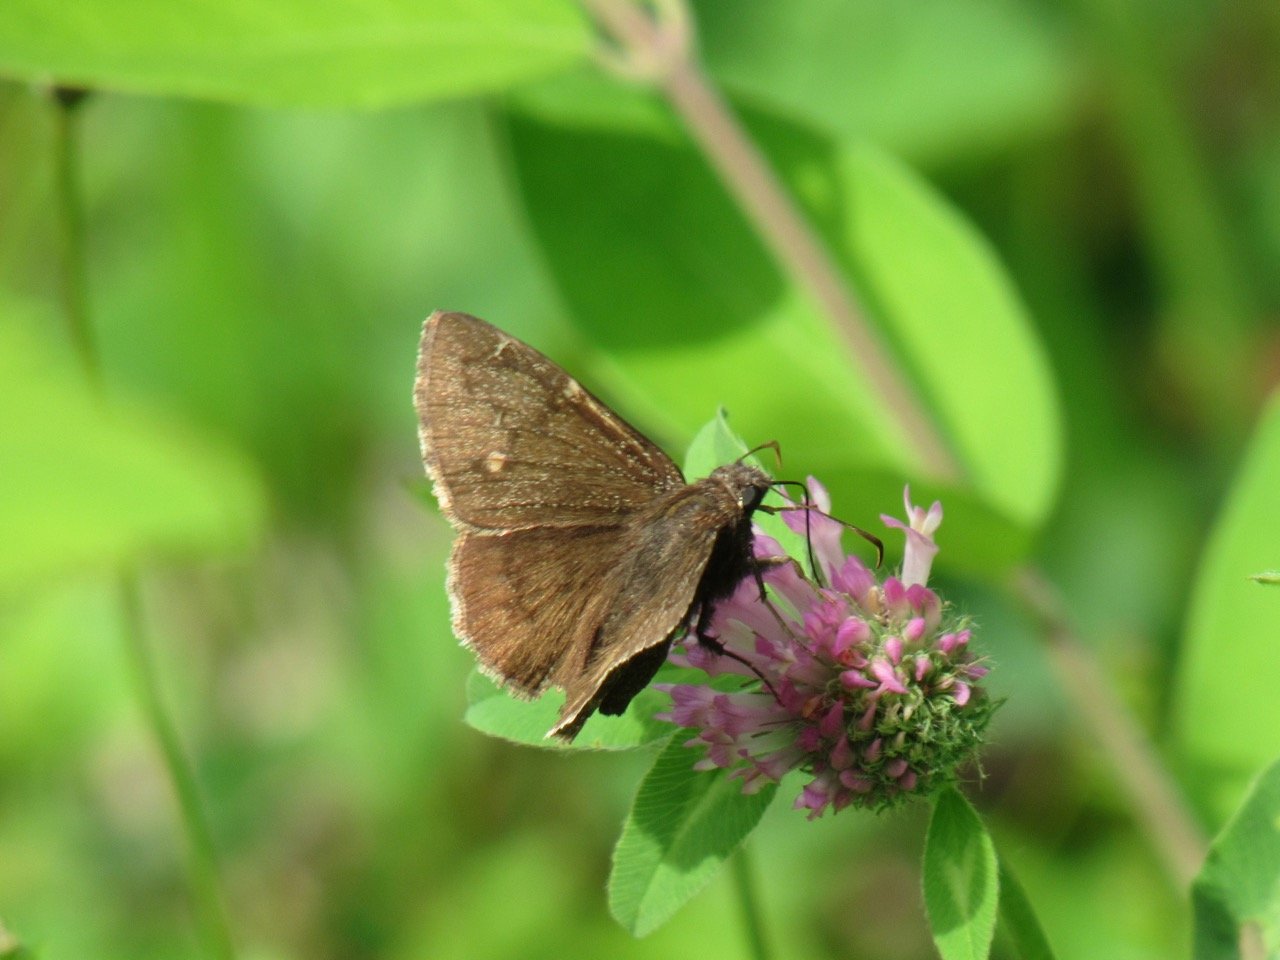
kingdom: Animalia
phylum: Arthropoda
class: Insecta
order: Lepidoptera
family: Hesperiidae
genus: Autochton
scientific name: Autochton
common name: Northern Cloudywing
